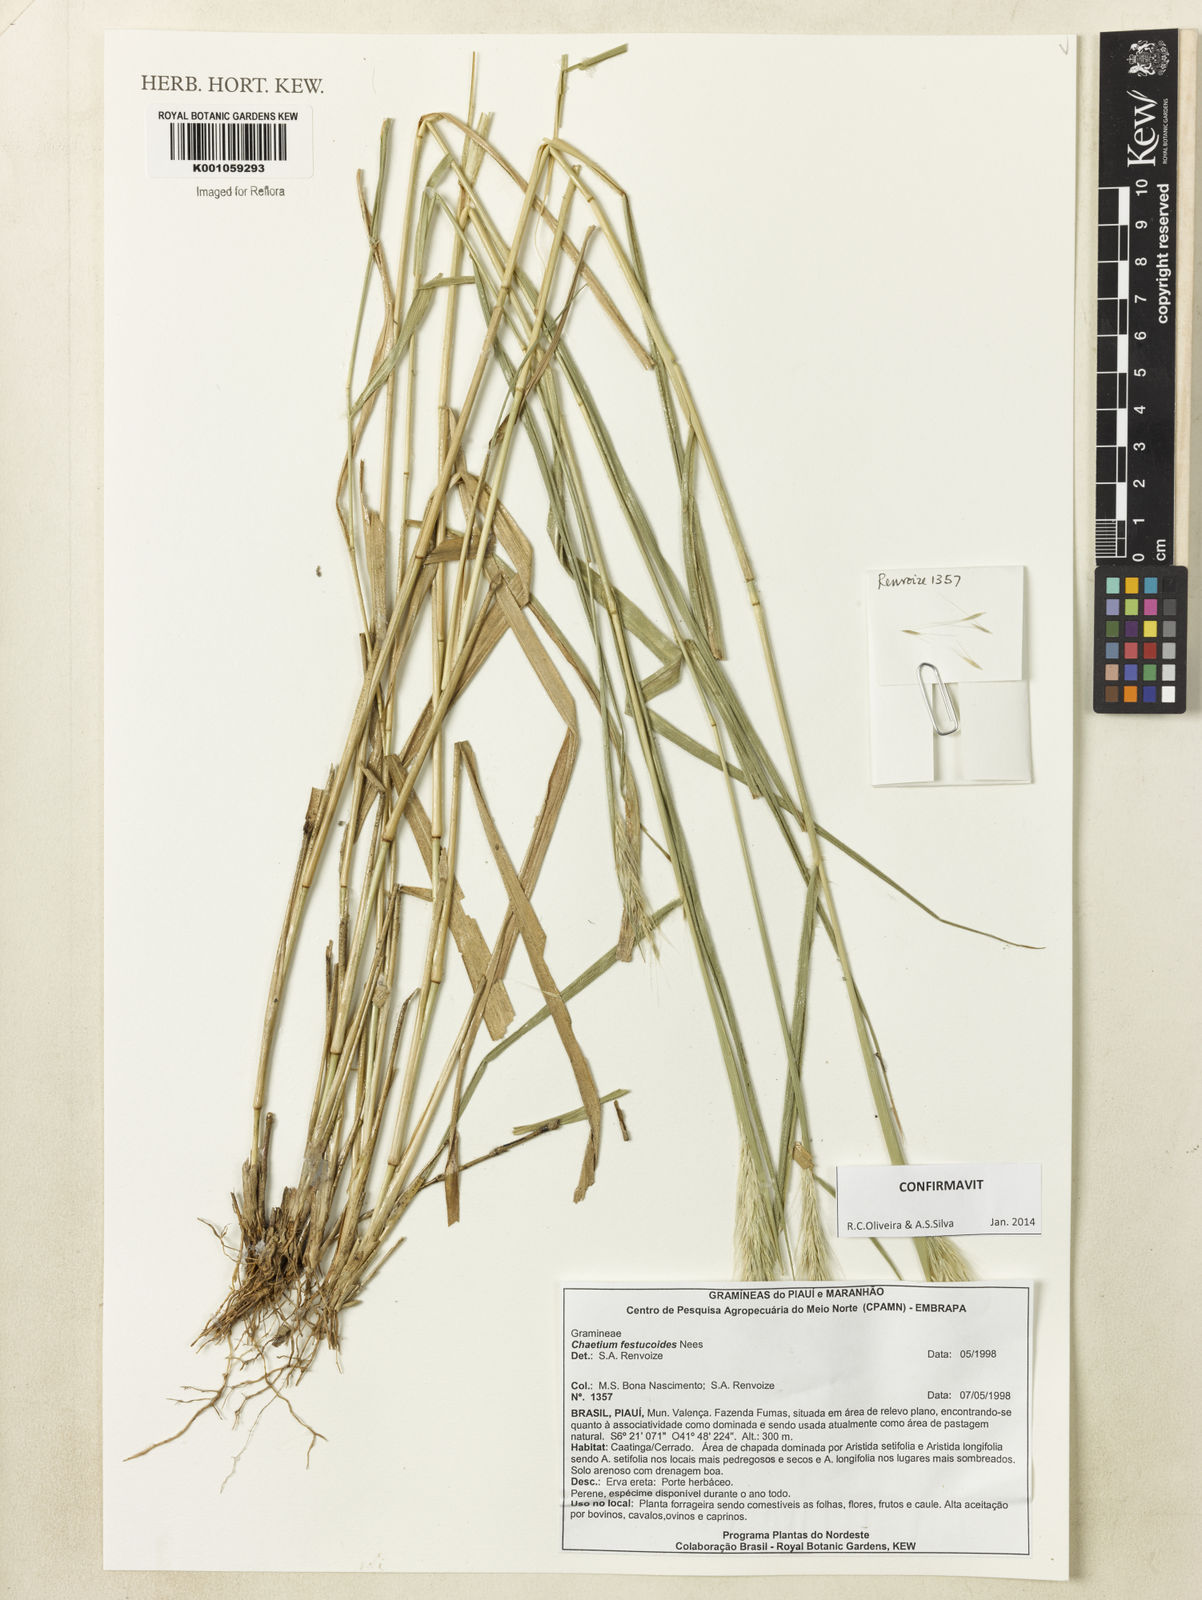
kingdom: Plantae
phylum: Tracheophyta
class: Liliopsida
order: Poales
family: Poaceae
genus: Chaetium
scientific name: Chaetium festucoides
